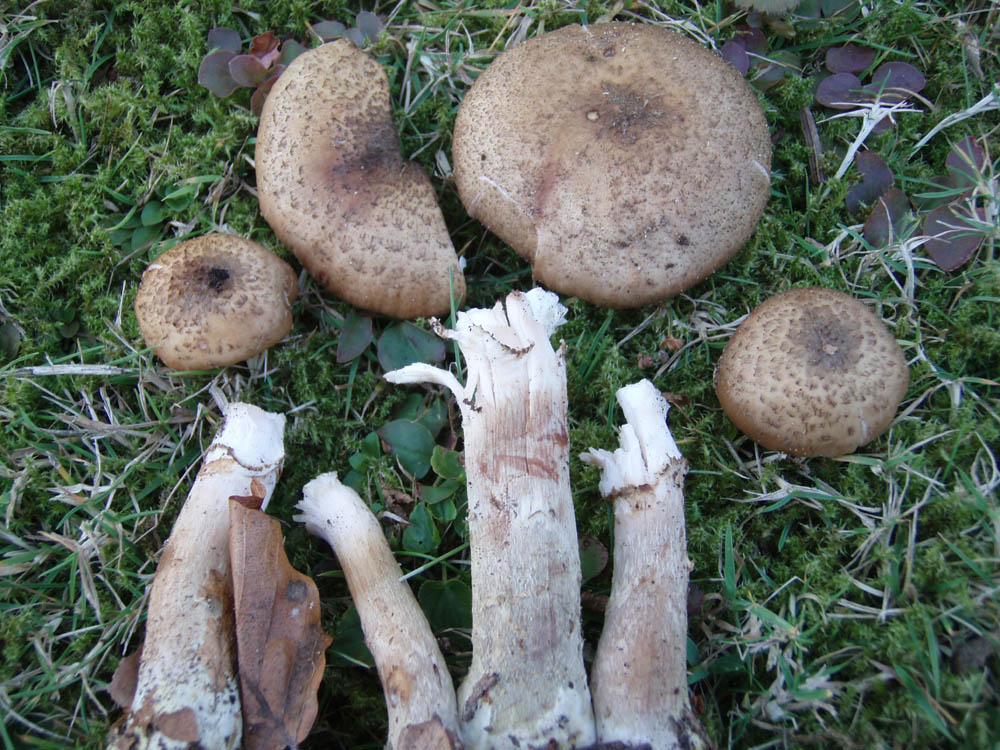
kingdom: Fungi
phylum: Basidiomycota
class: Agaricomycetes
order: Agaricales
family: Physalacriaceae
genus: Armillaria
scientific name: Armillaria ostoyae
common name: mørk honningsvamp
